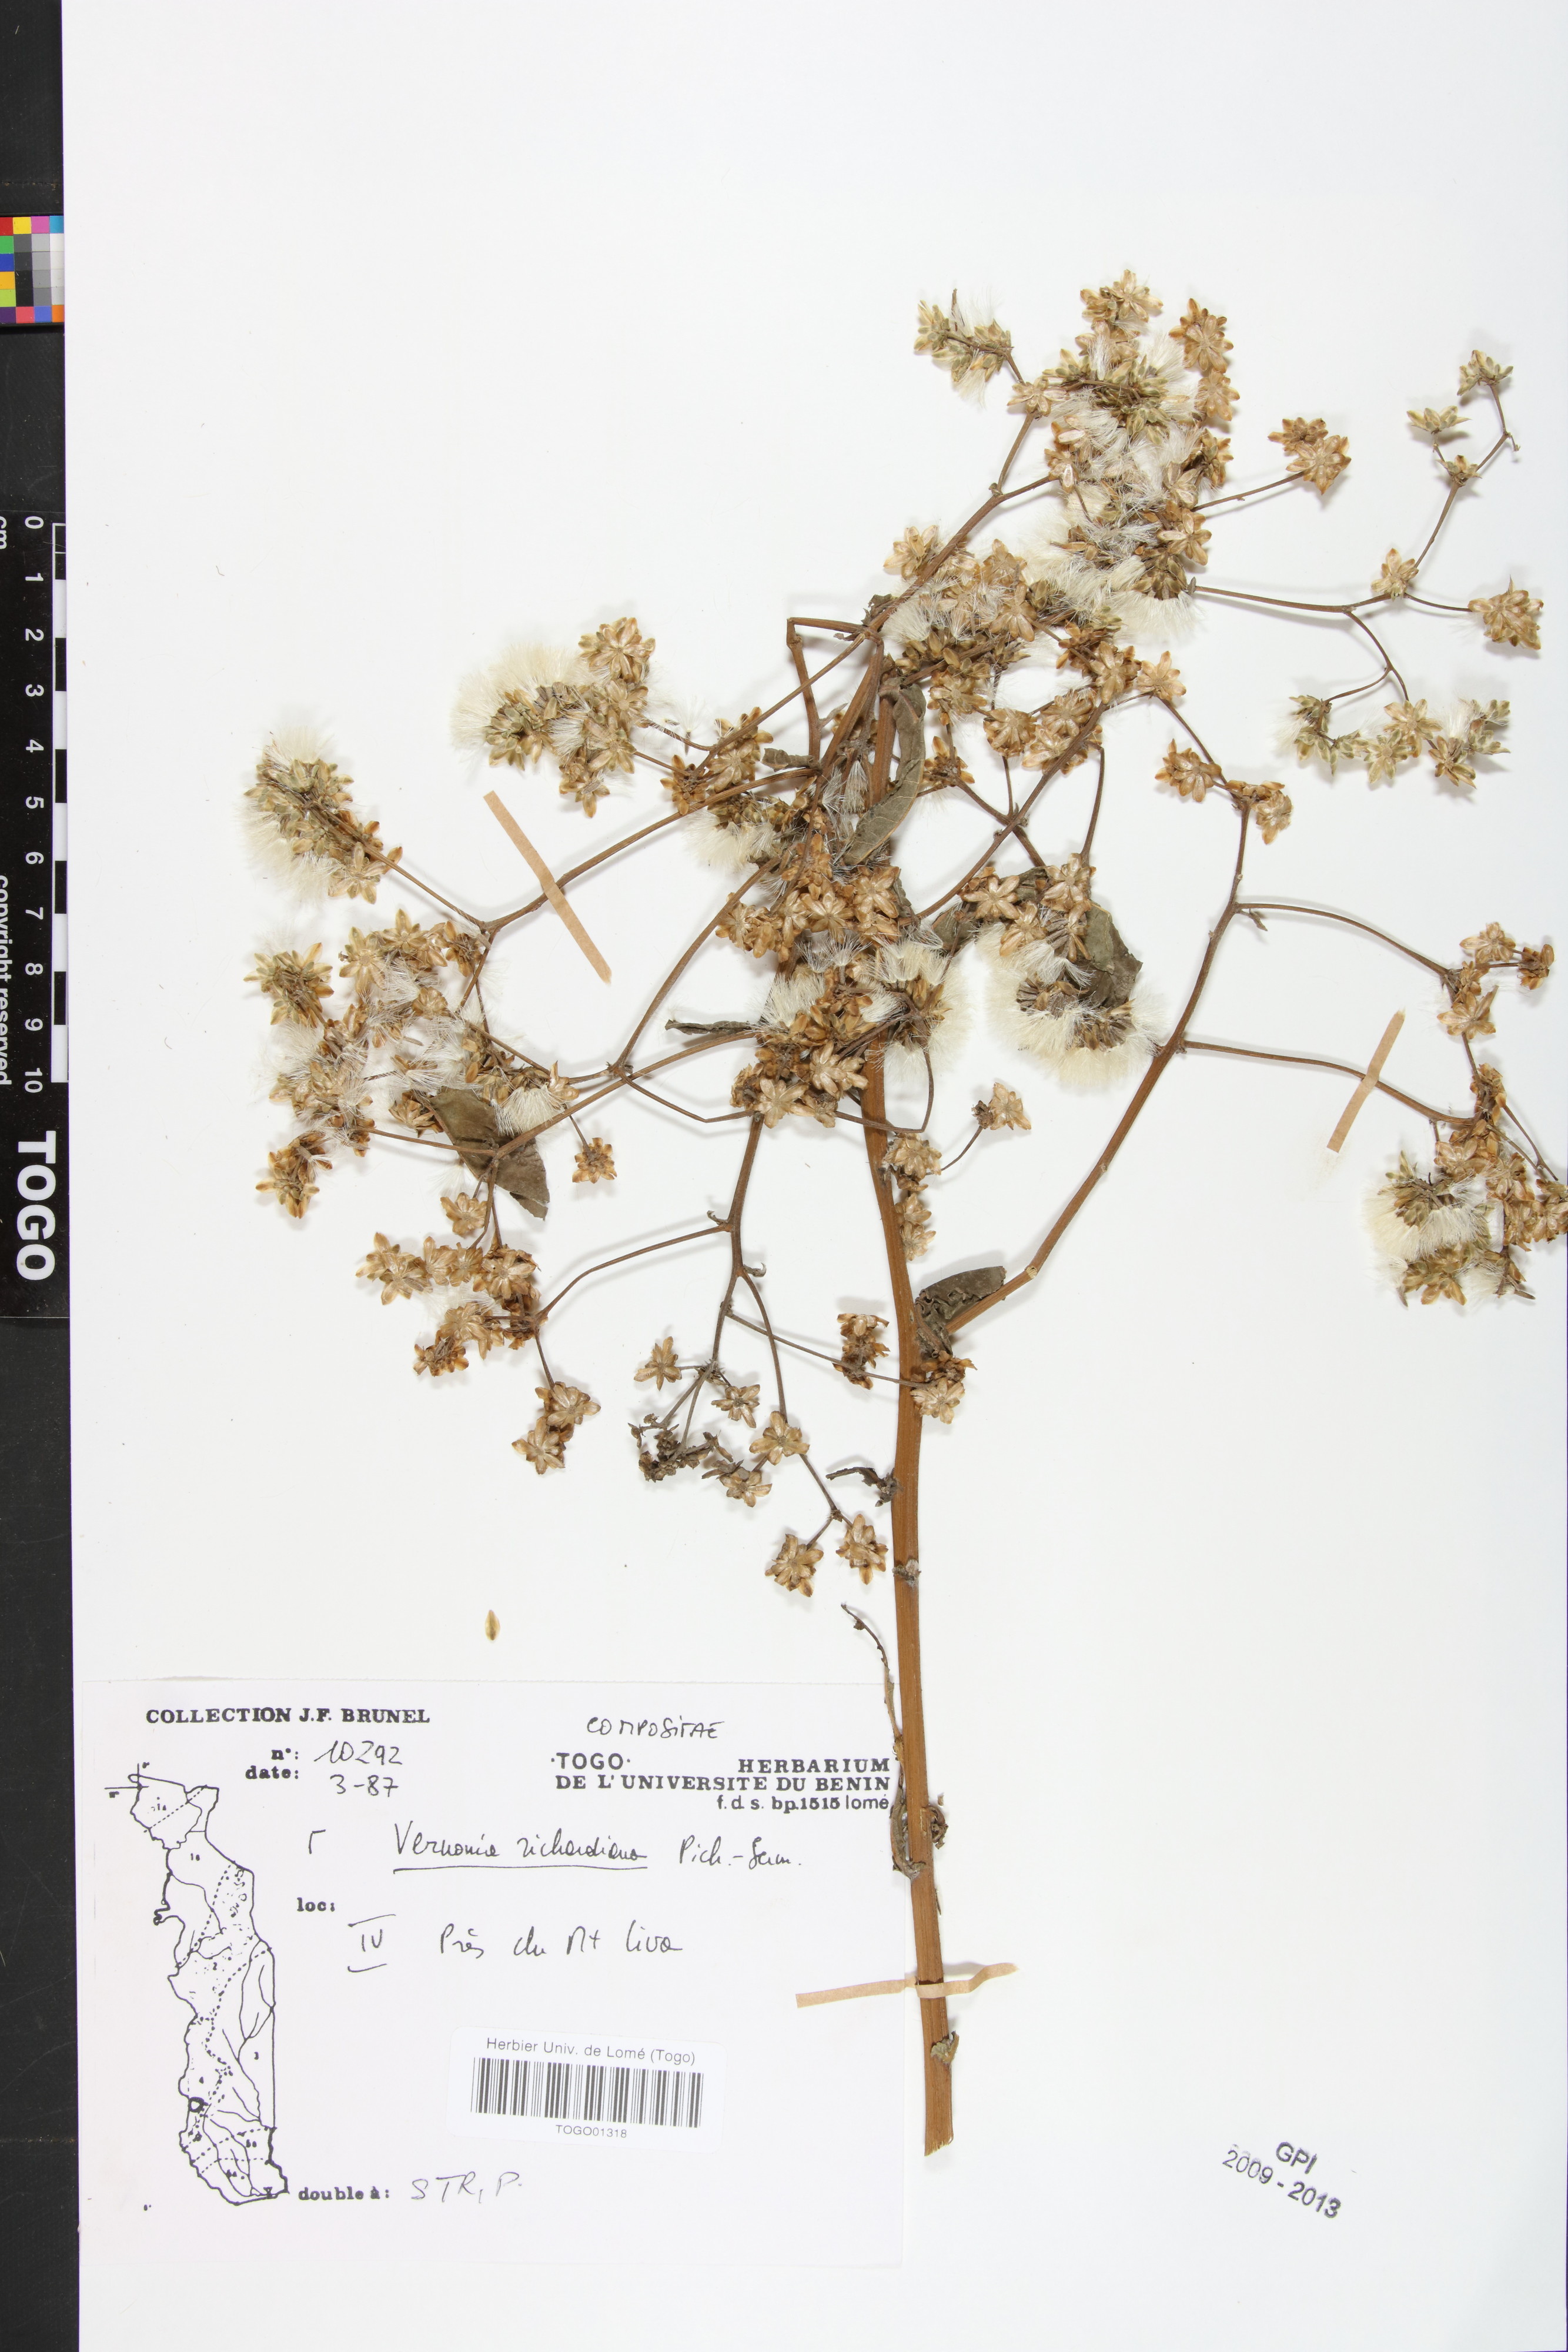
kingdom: Plantae
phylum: Tracheophyta
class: Magnoliopsida
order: Asterales
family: Asteraceae
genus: Gymnanthemum
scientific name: Gymnanthemum theophrastifolium
